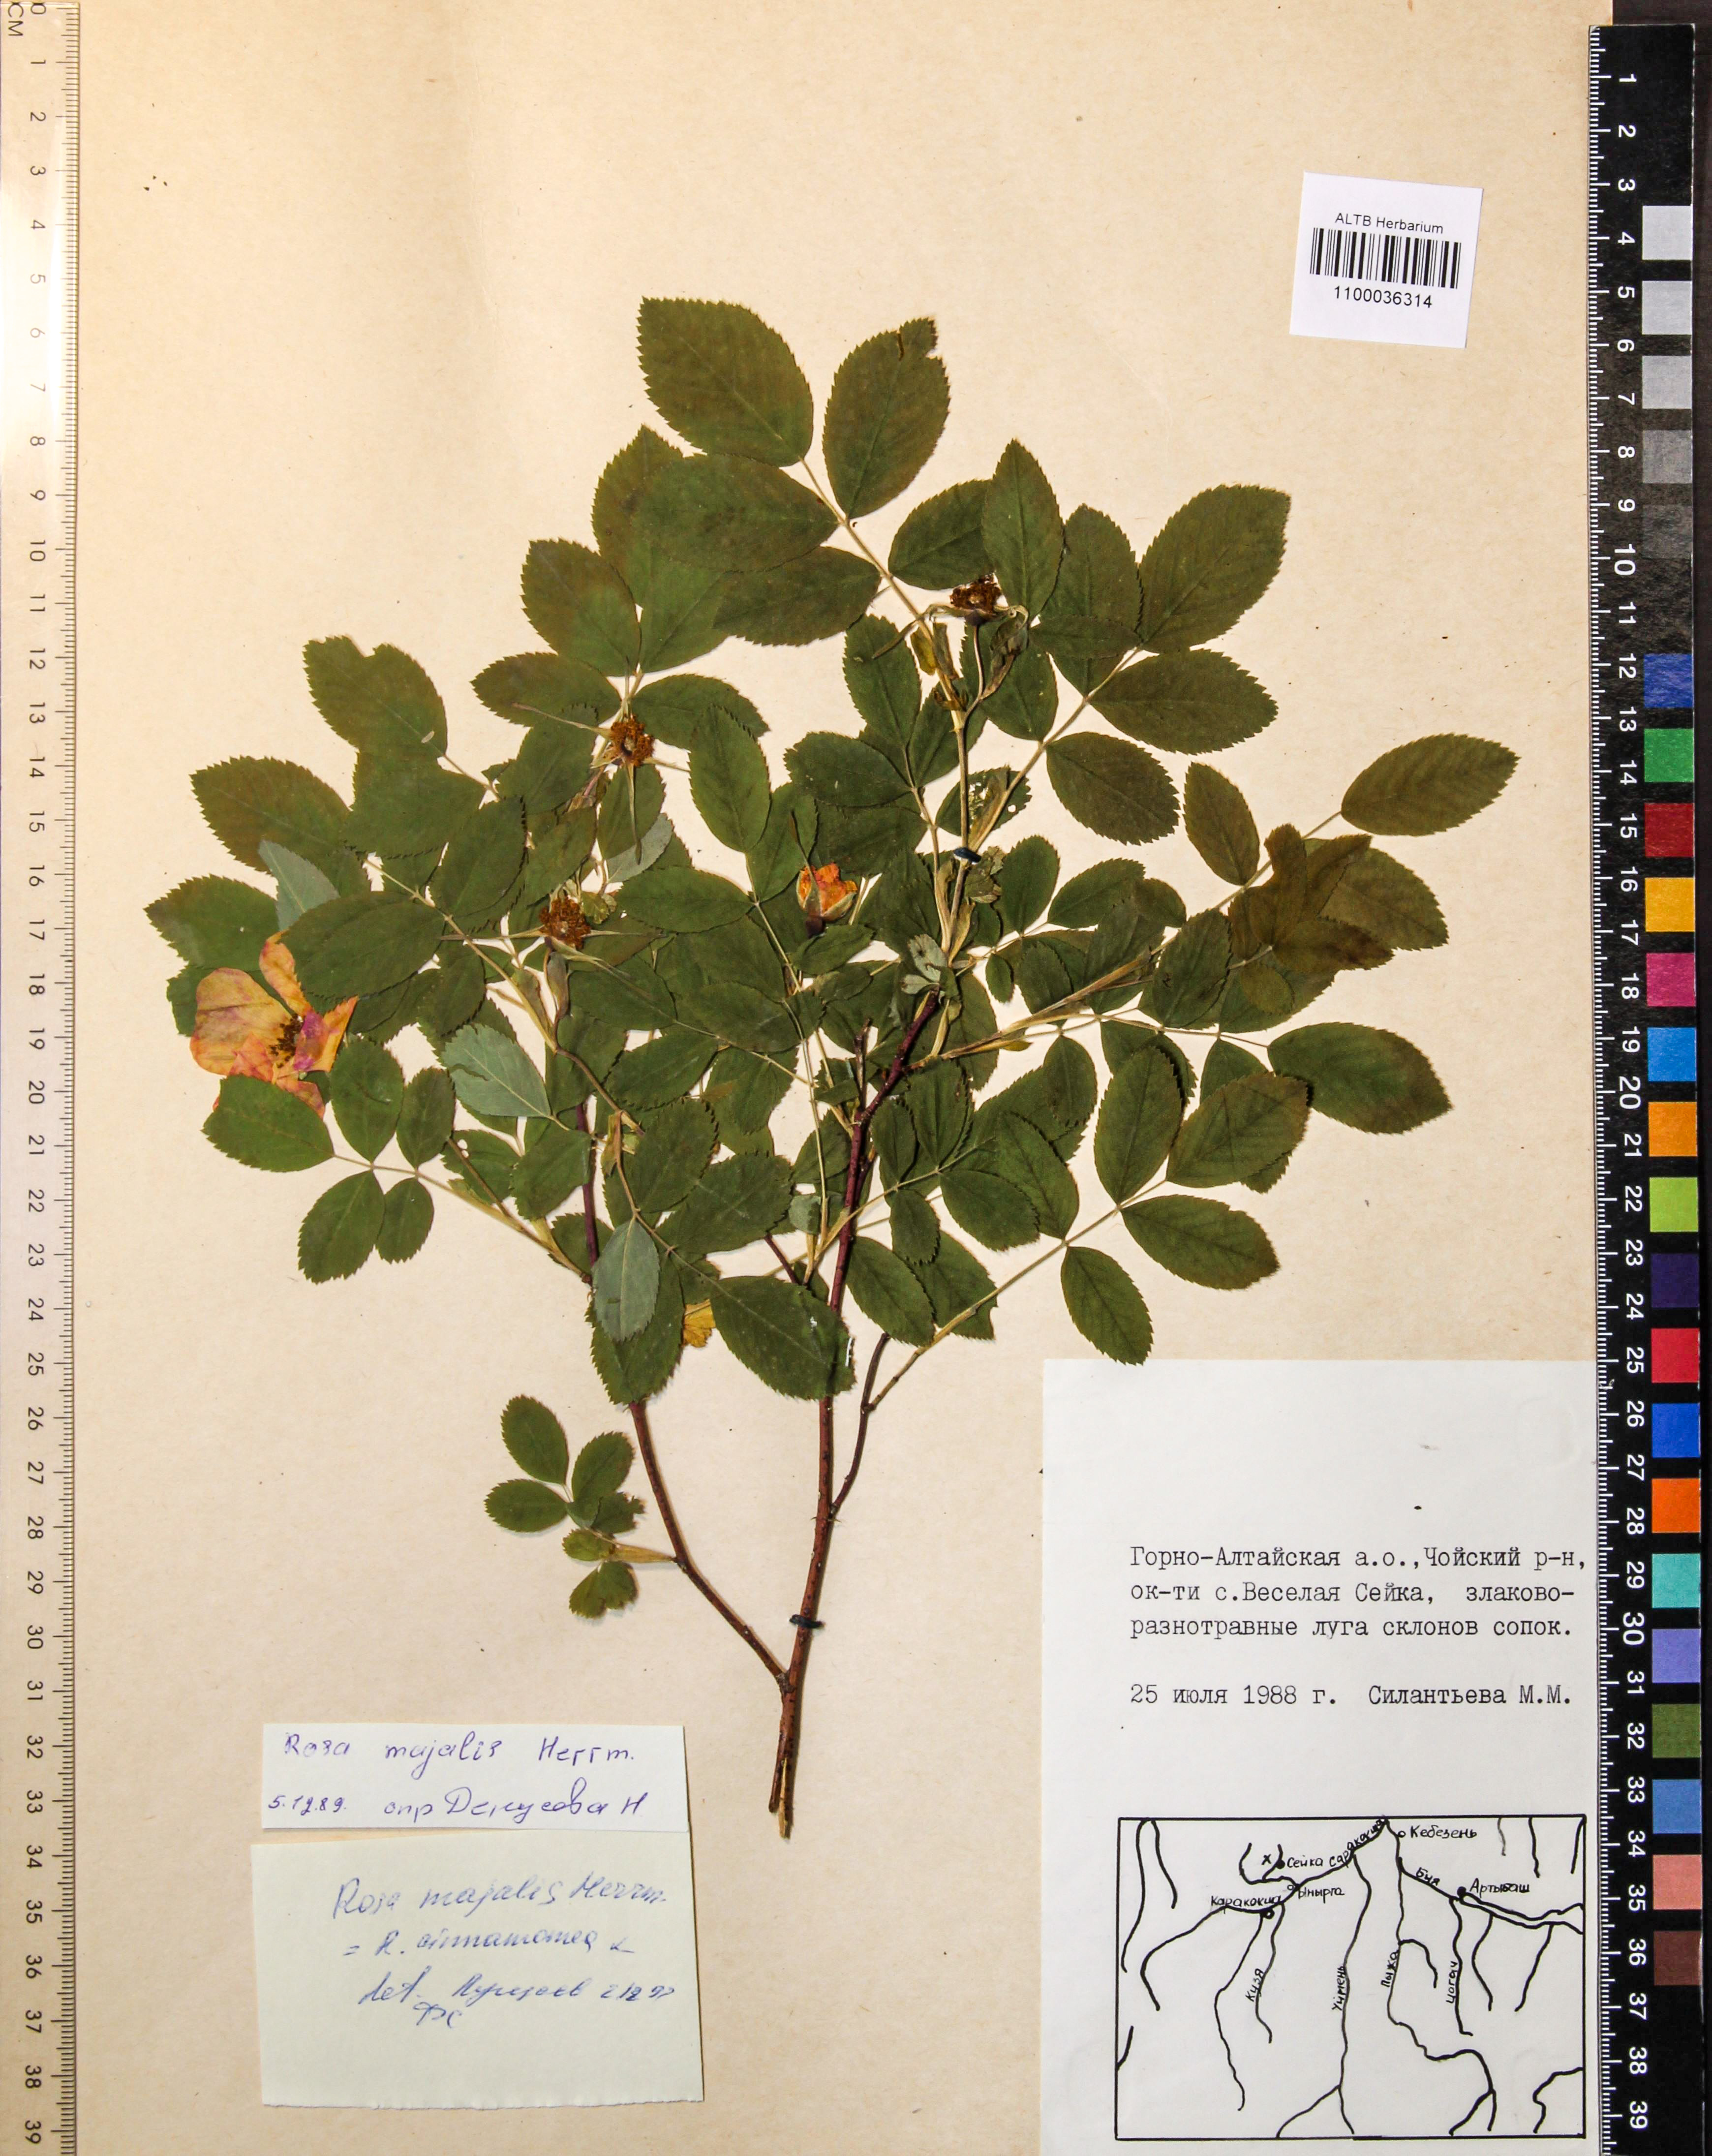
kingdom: Plantae
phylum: Tracheophyta
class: Magnoliopsida
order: Rosales
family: Rosaceae
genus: Rosa
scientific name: Rosa majalis
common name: Cinnamon rose
